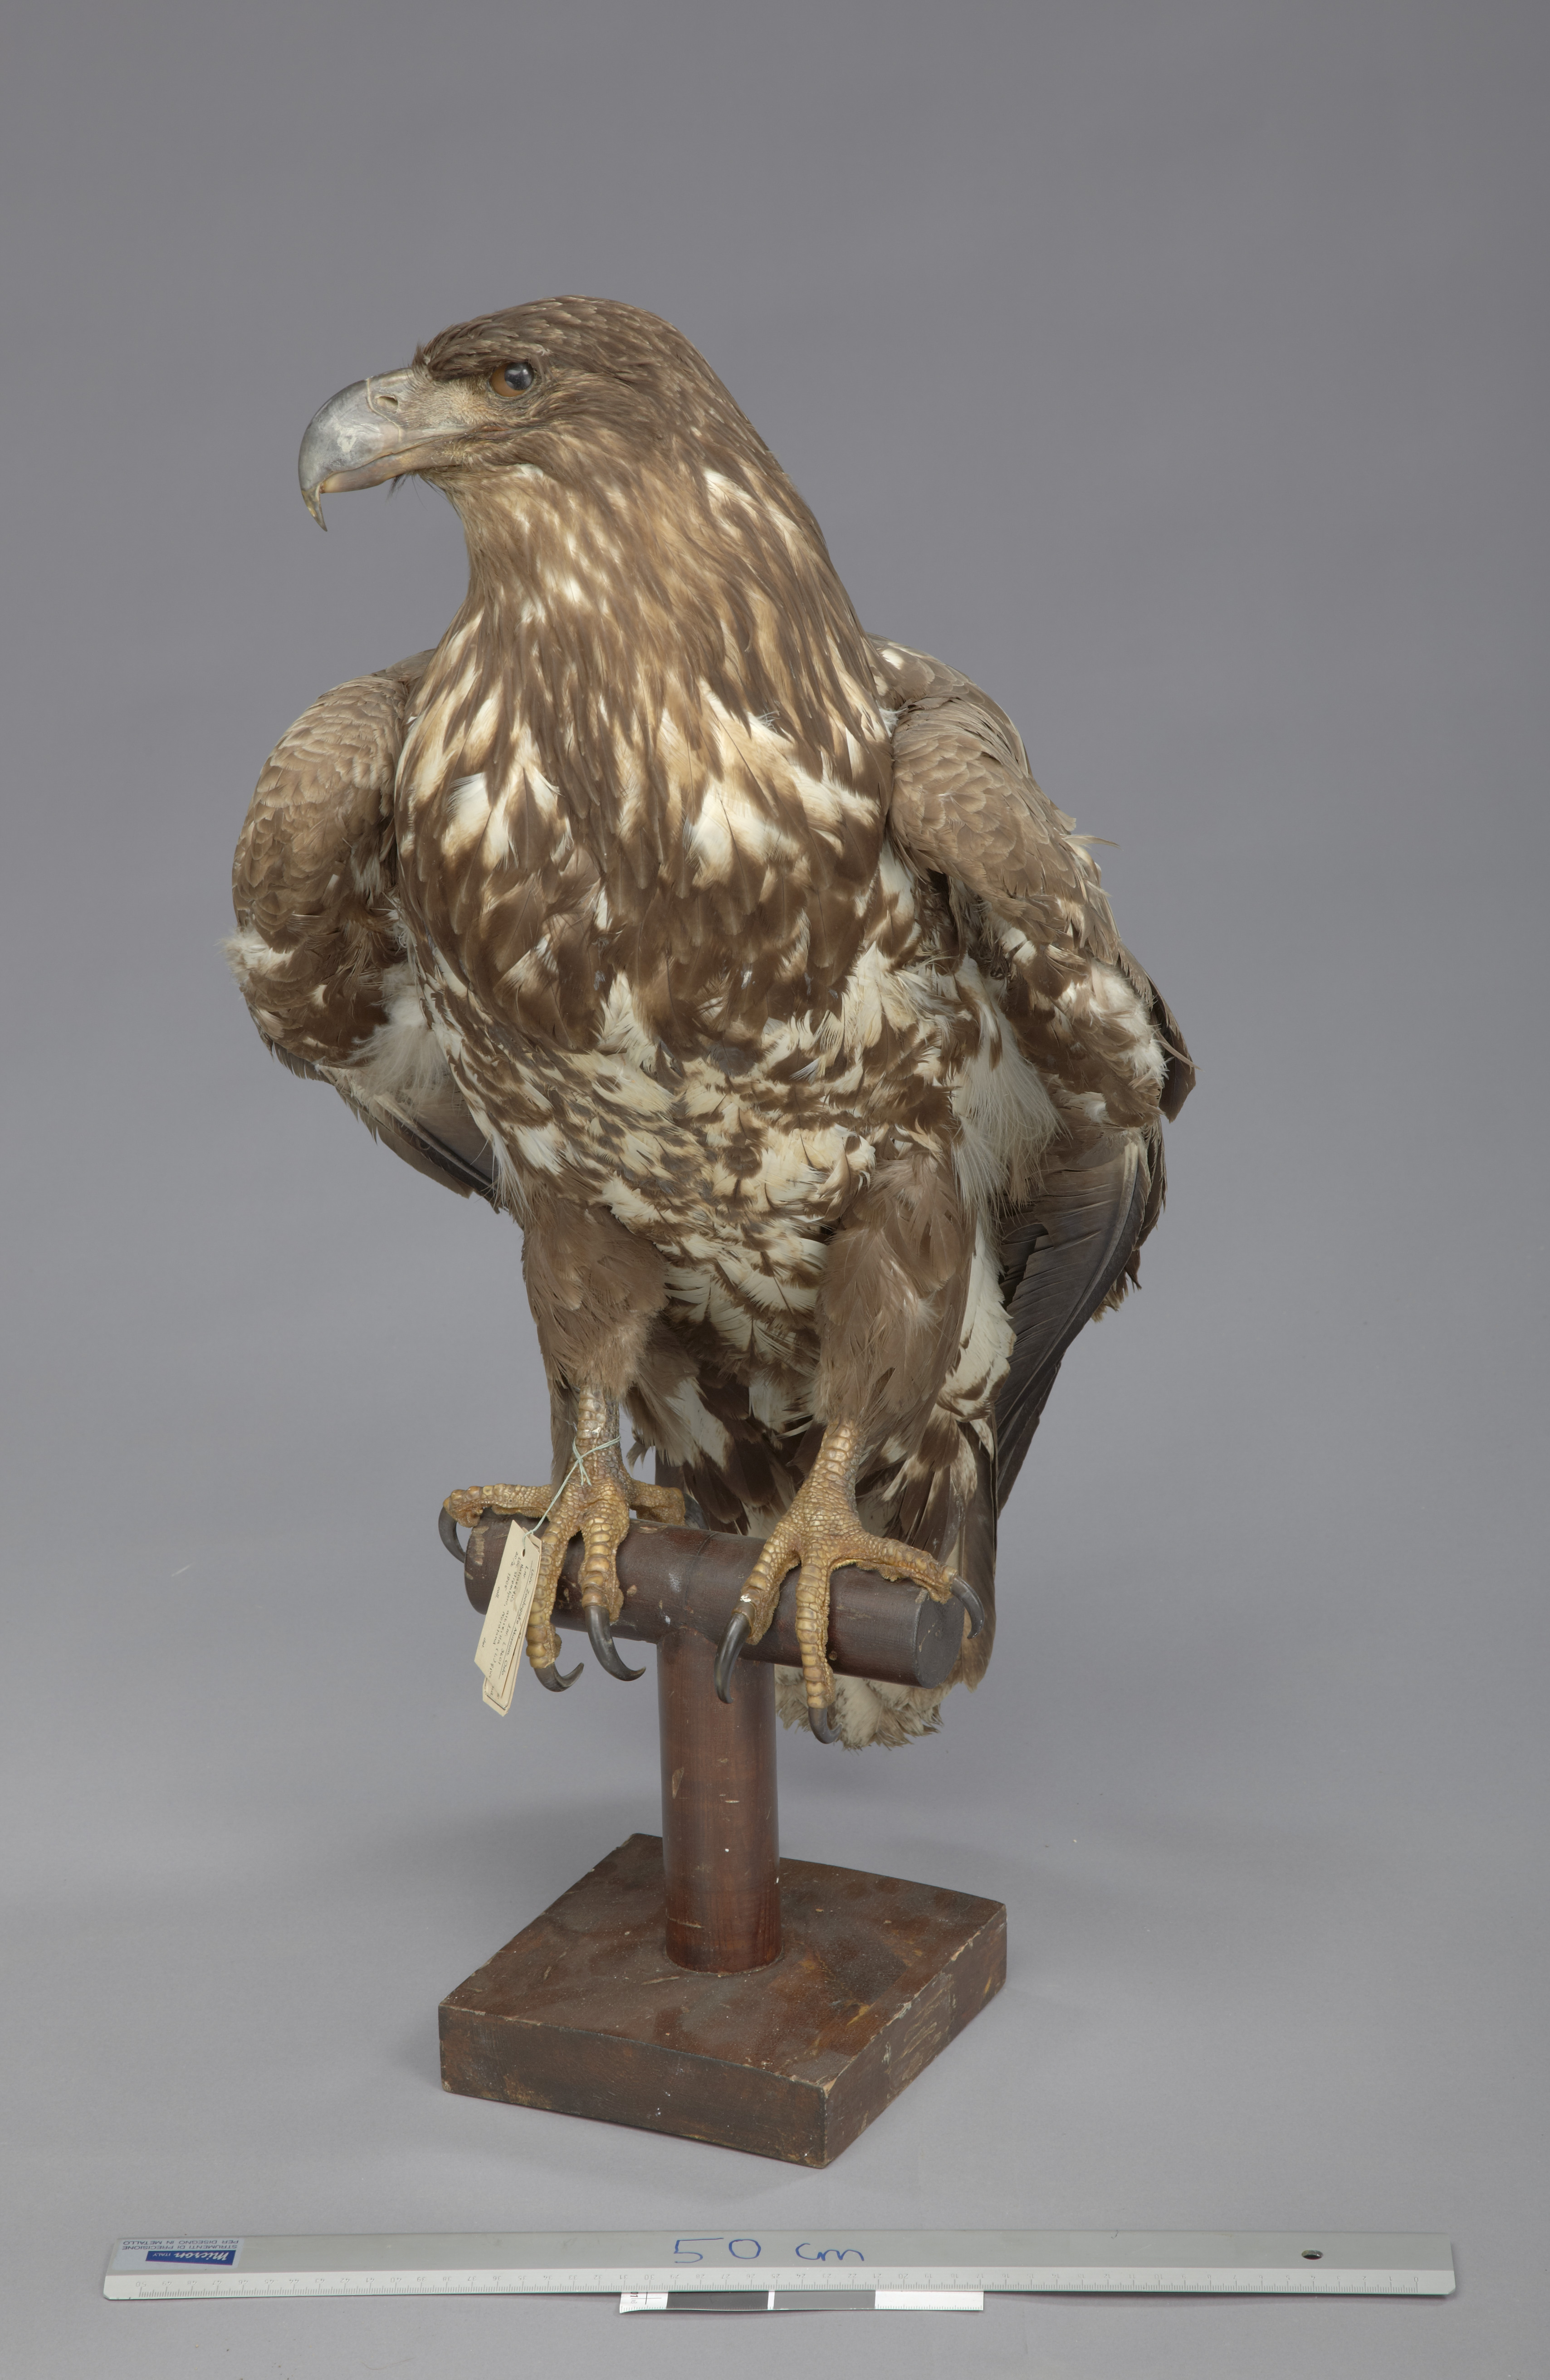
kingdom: Animalia
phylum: Chordata
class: Aves
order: Accipitriformes
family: Accipitridae
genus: Haliaeetus
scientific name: Haliaeetus albicilla
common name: White-tailed eagle
